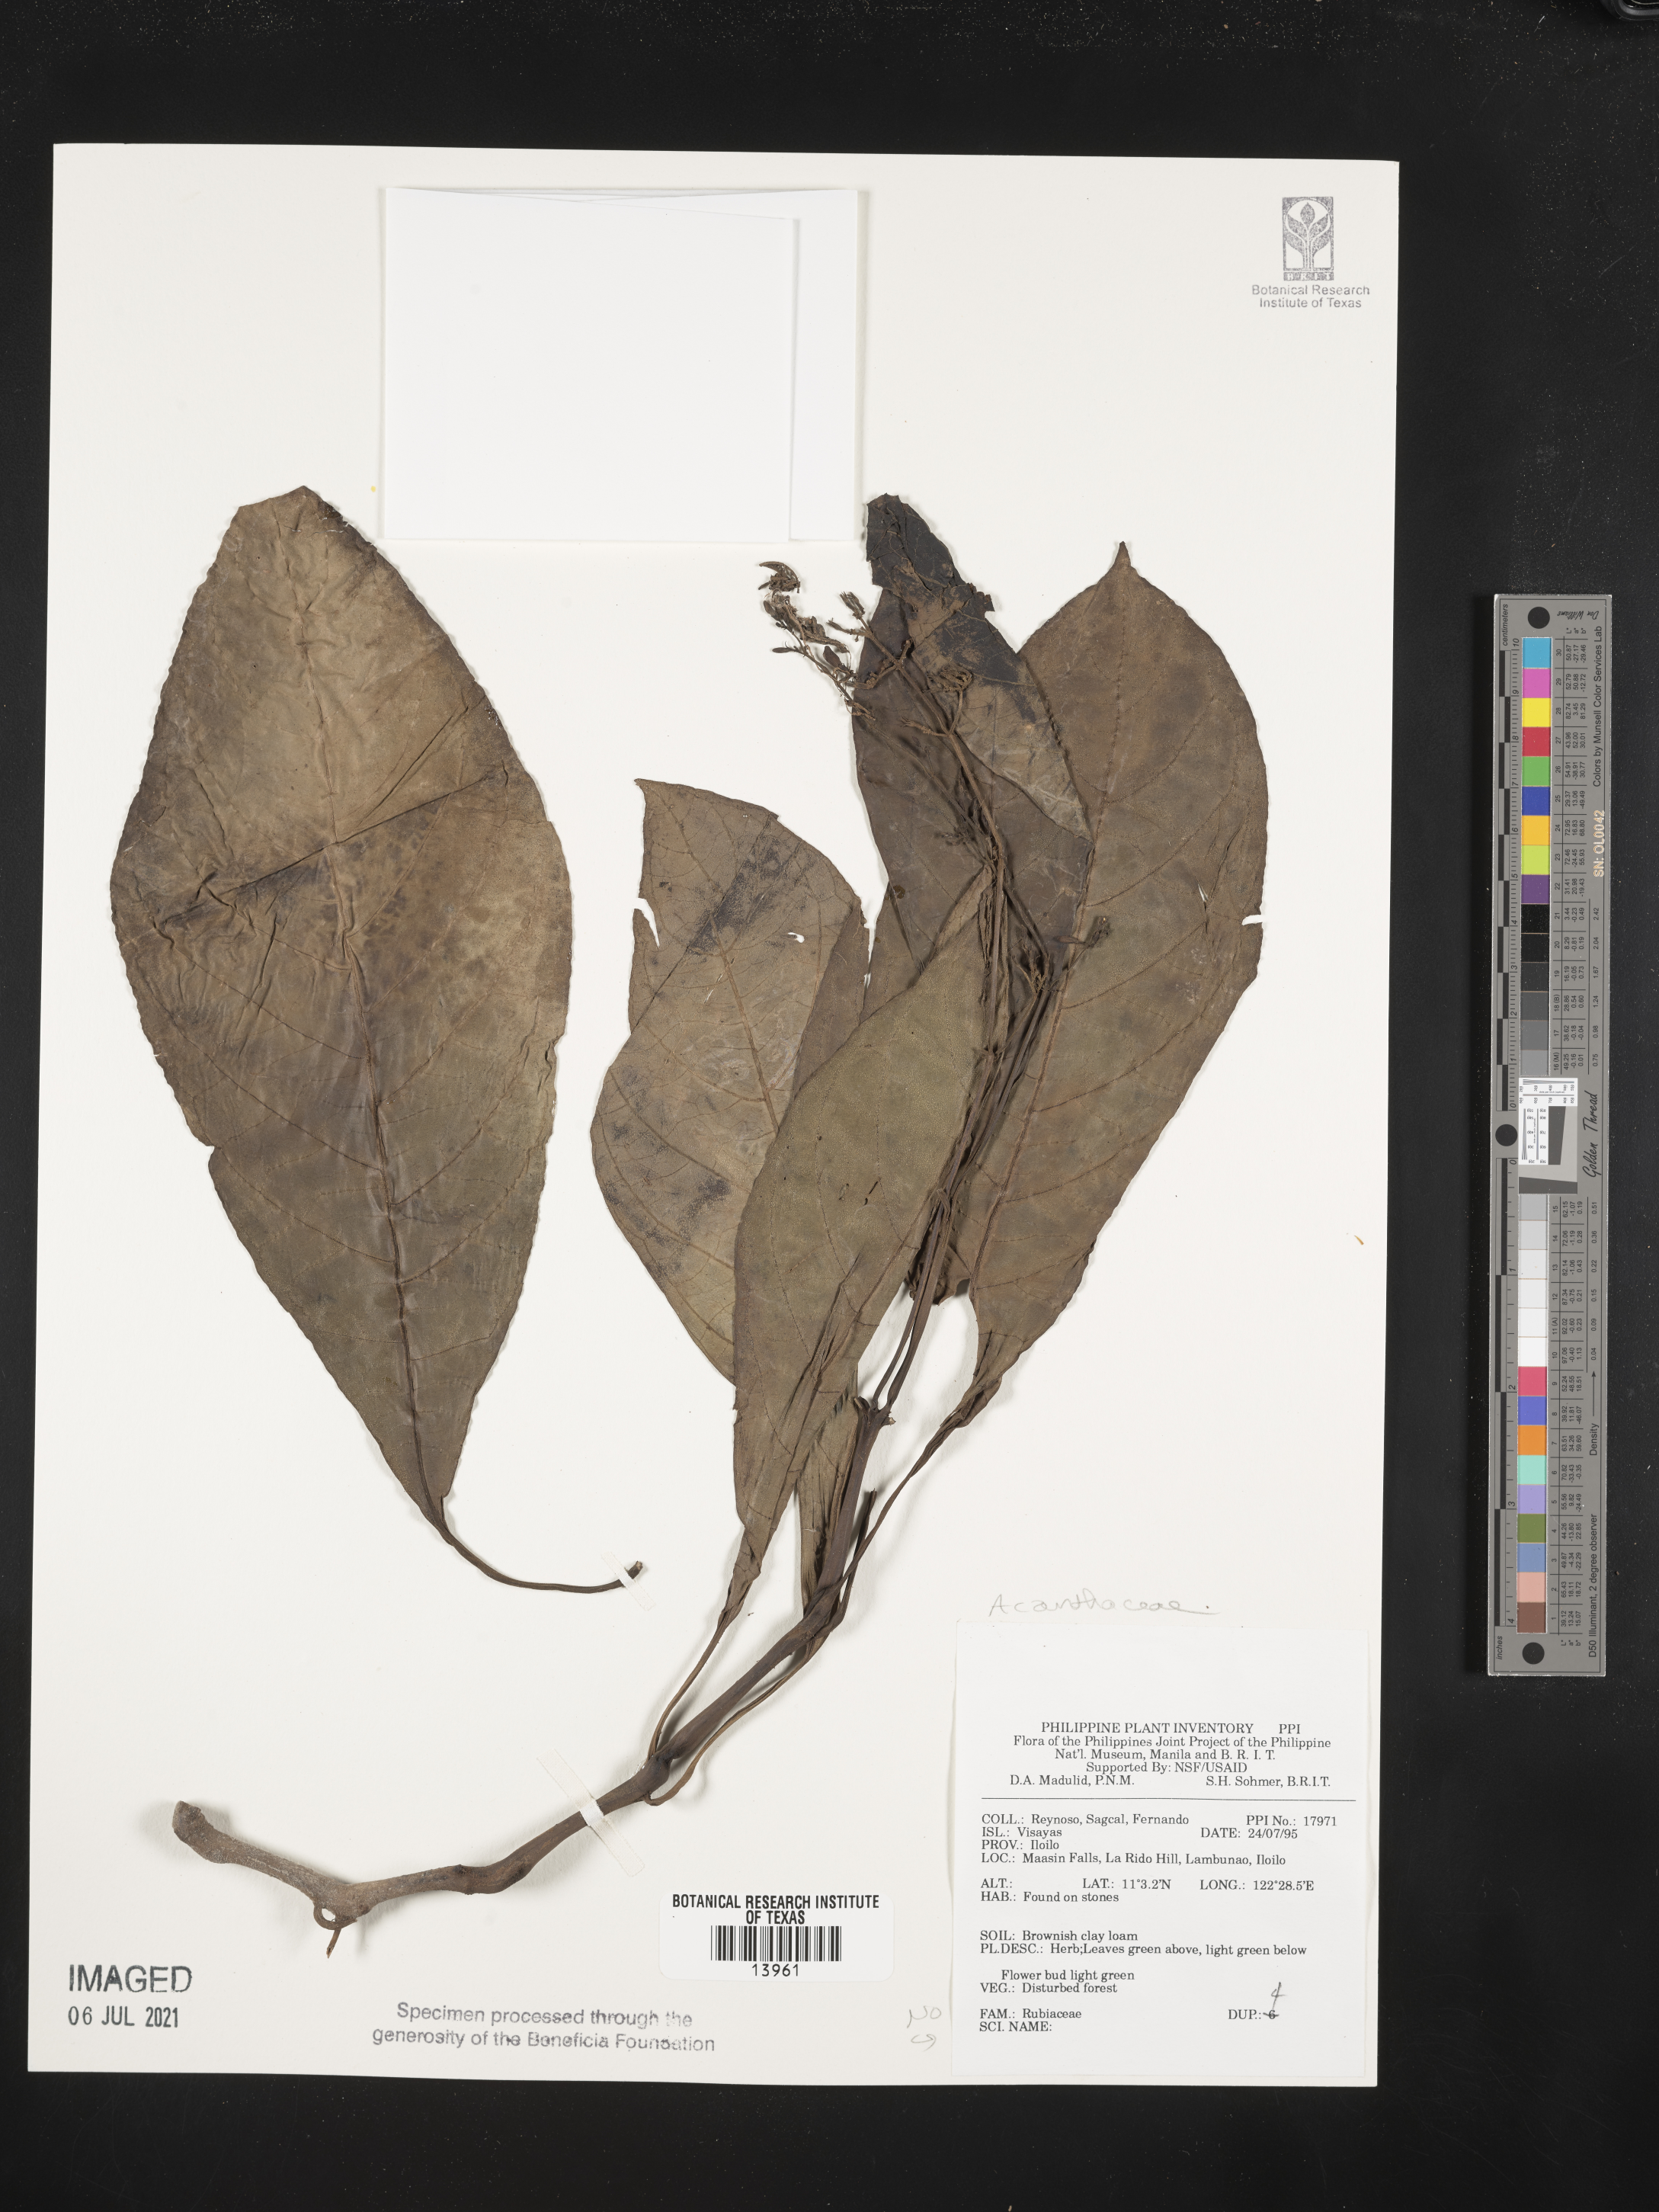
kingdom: Plantae
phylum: Tracheophyta
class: Magnoliopsida
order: Lamiales
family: Acanthaceae
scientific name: Acanthaceae
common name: Acanthaceae
